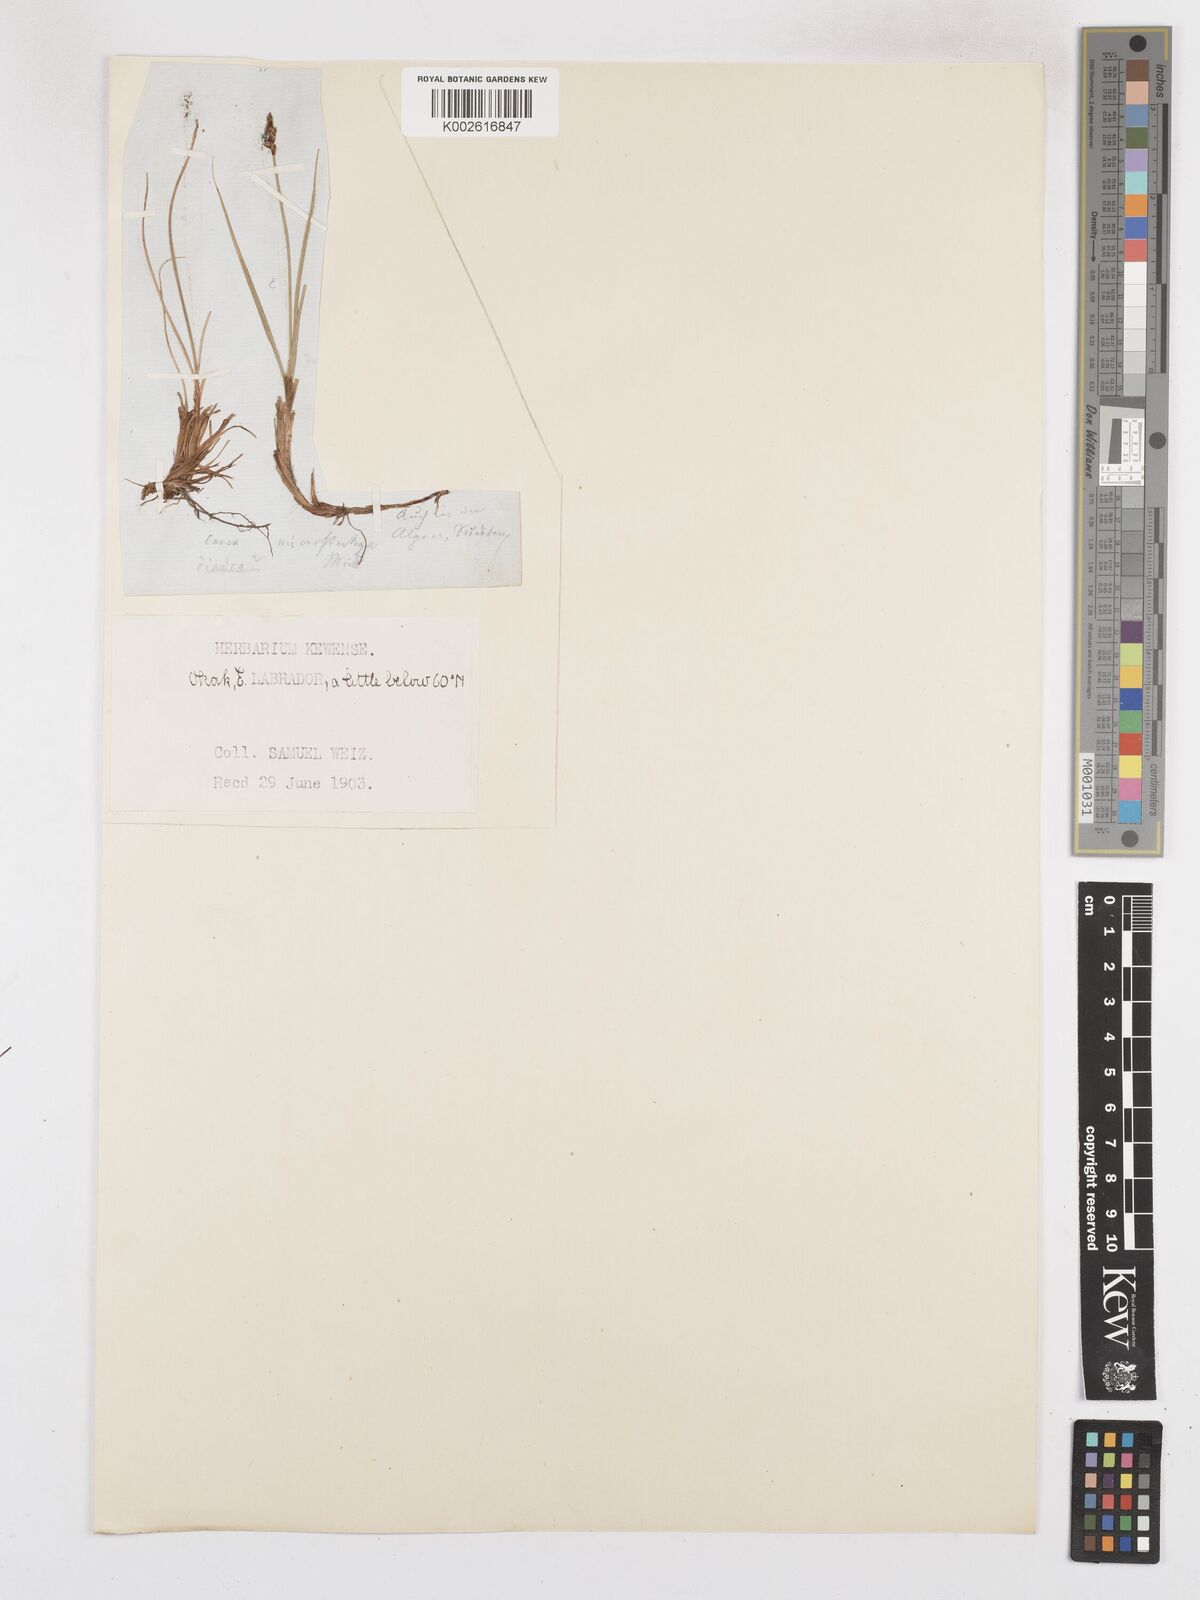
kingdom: Plantae
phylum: Tracheophyta
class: Liliopsida
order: Poales
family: Cyperaceae
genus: Carex
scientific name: Carex leptalea
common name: Bristly-stalked sedge
